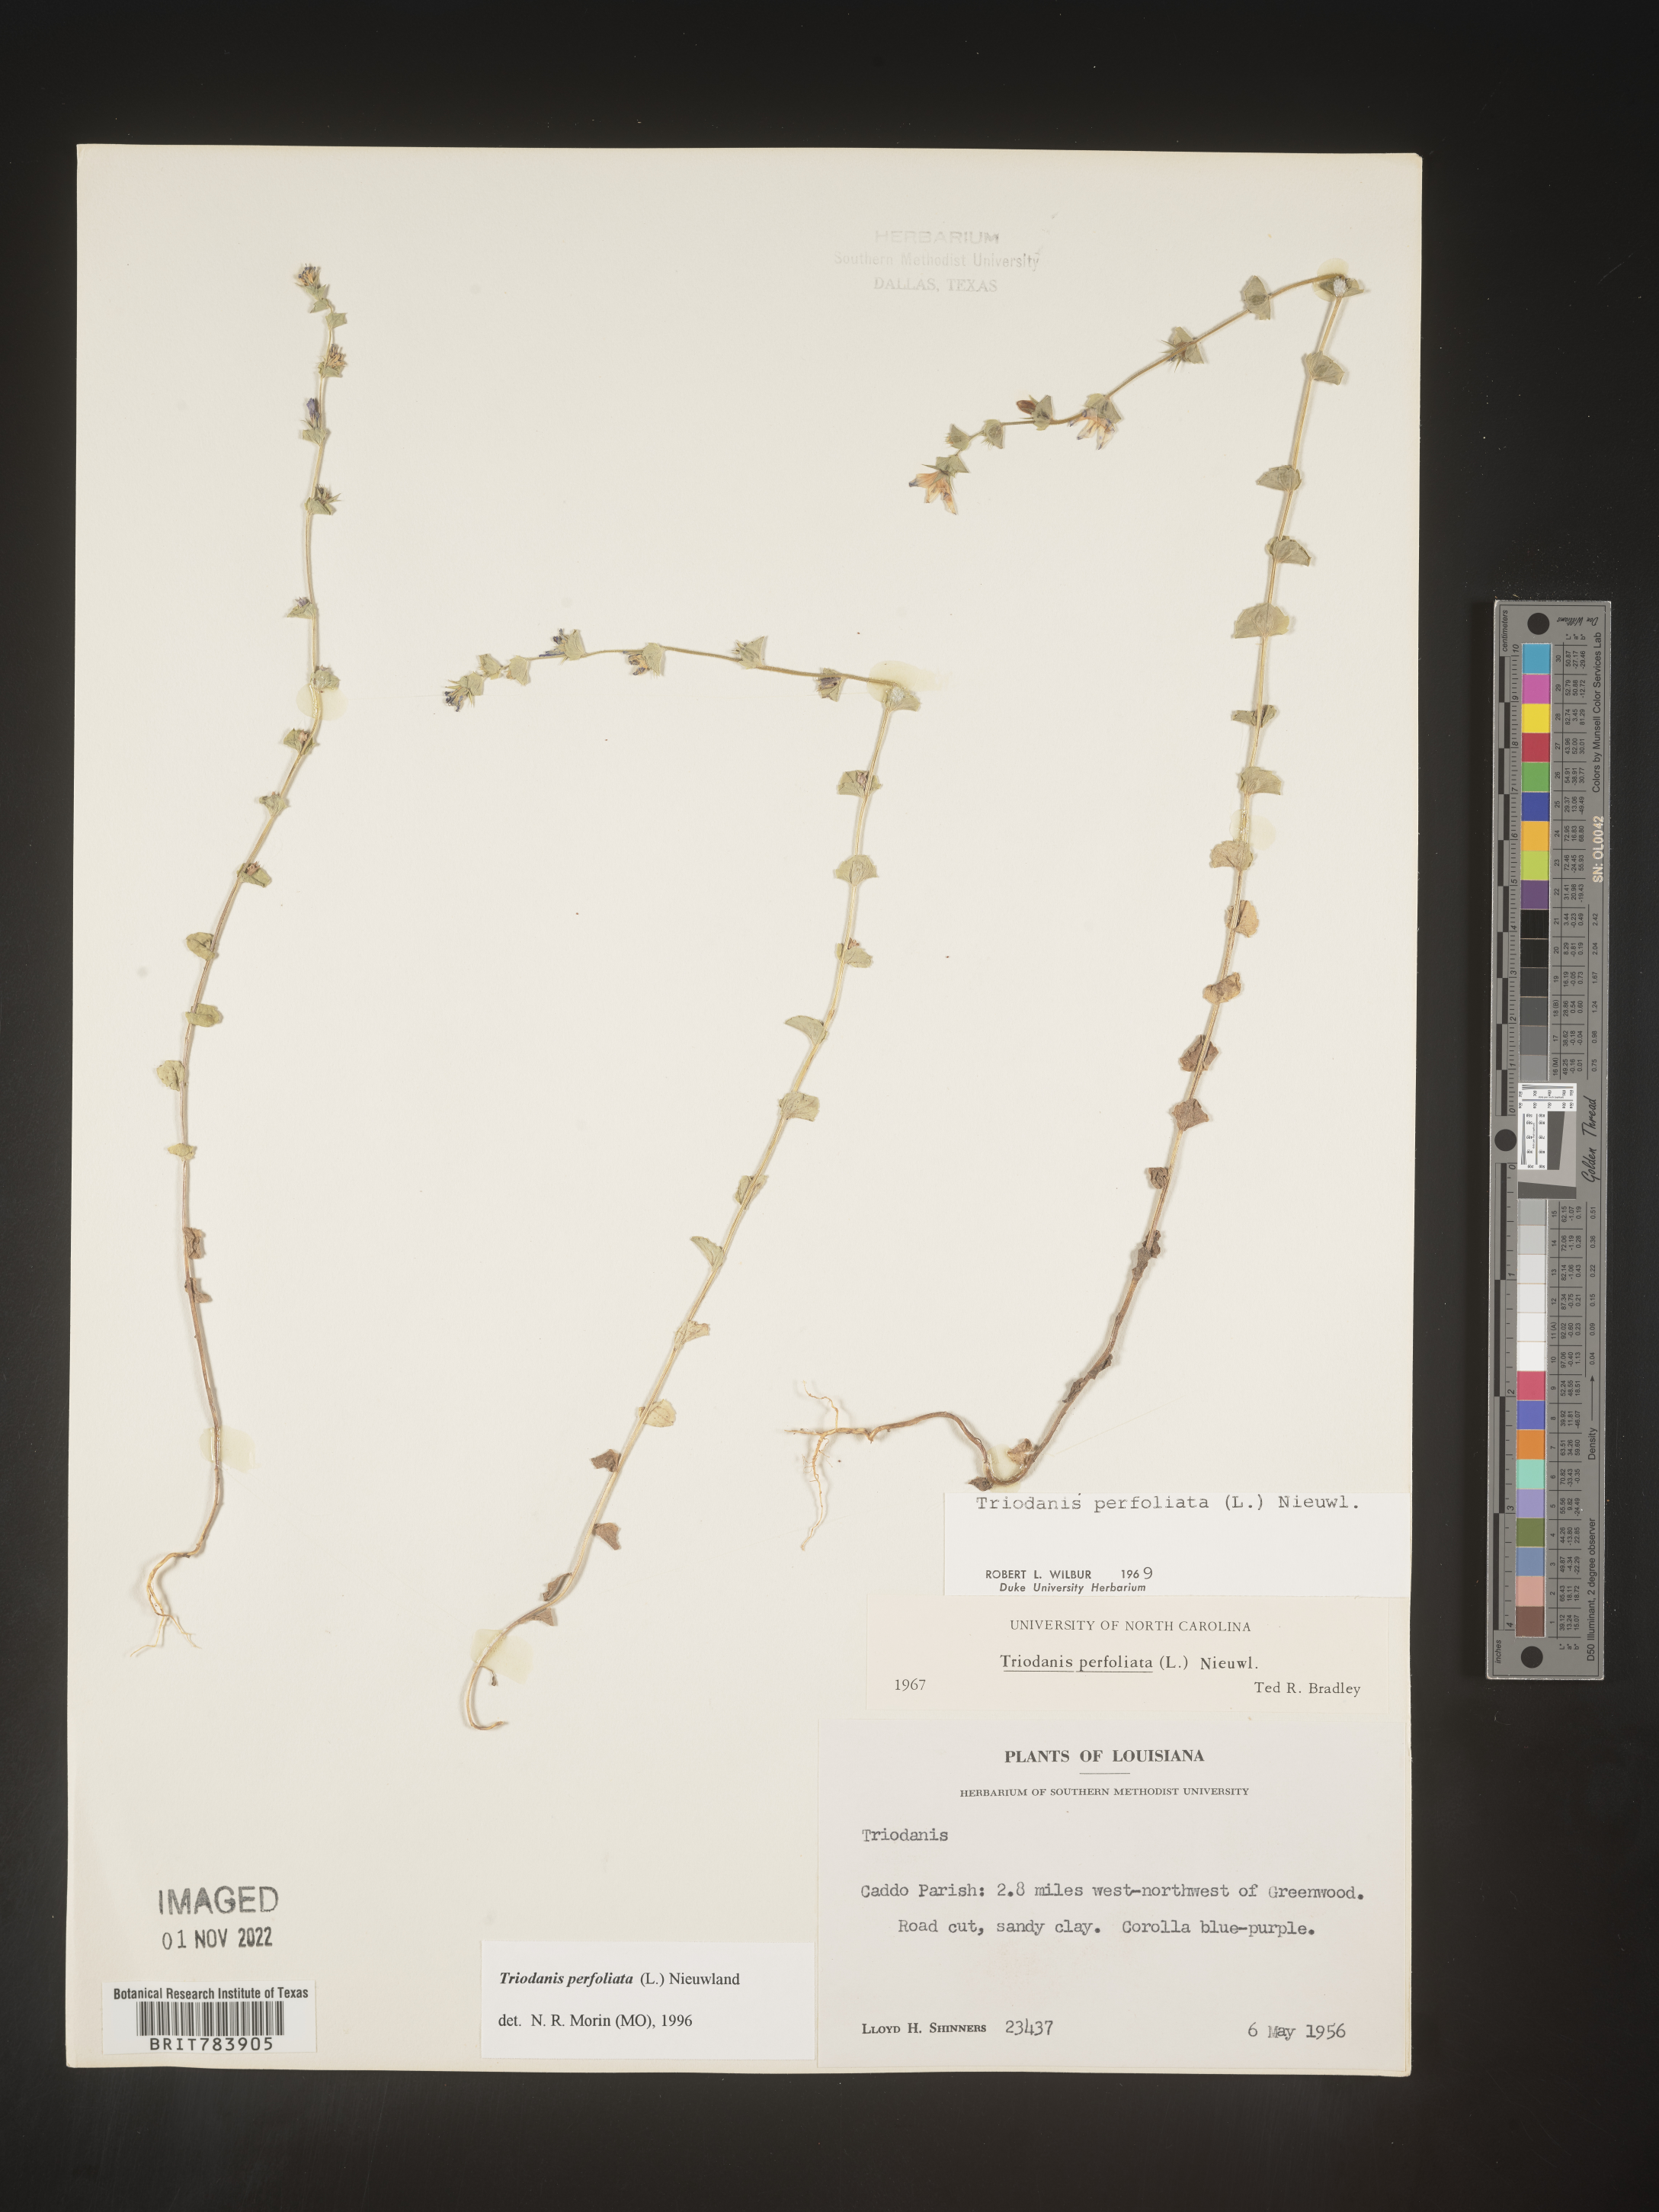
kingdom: Plantae
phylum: Tracheophyta
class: Magnoliopsida
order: Asterales
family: Campanulaceae
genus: Triodanis
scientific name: Triodanis perfoliata
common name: Clasping venus' looking-glass
